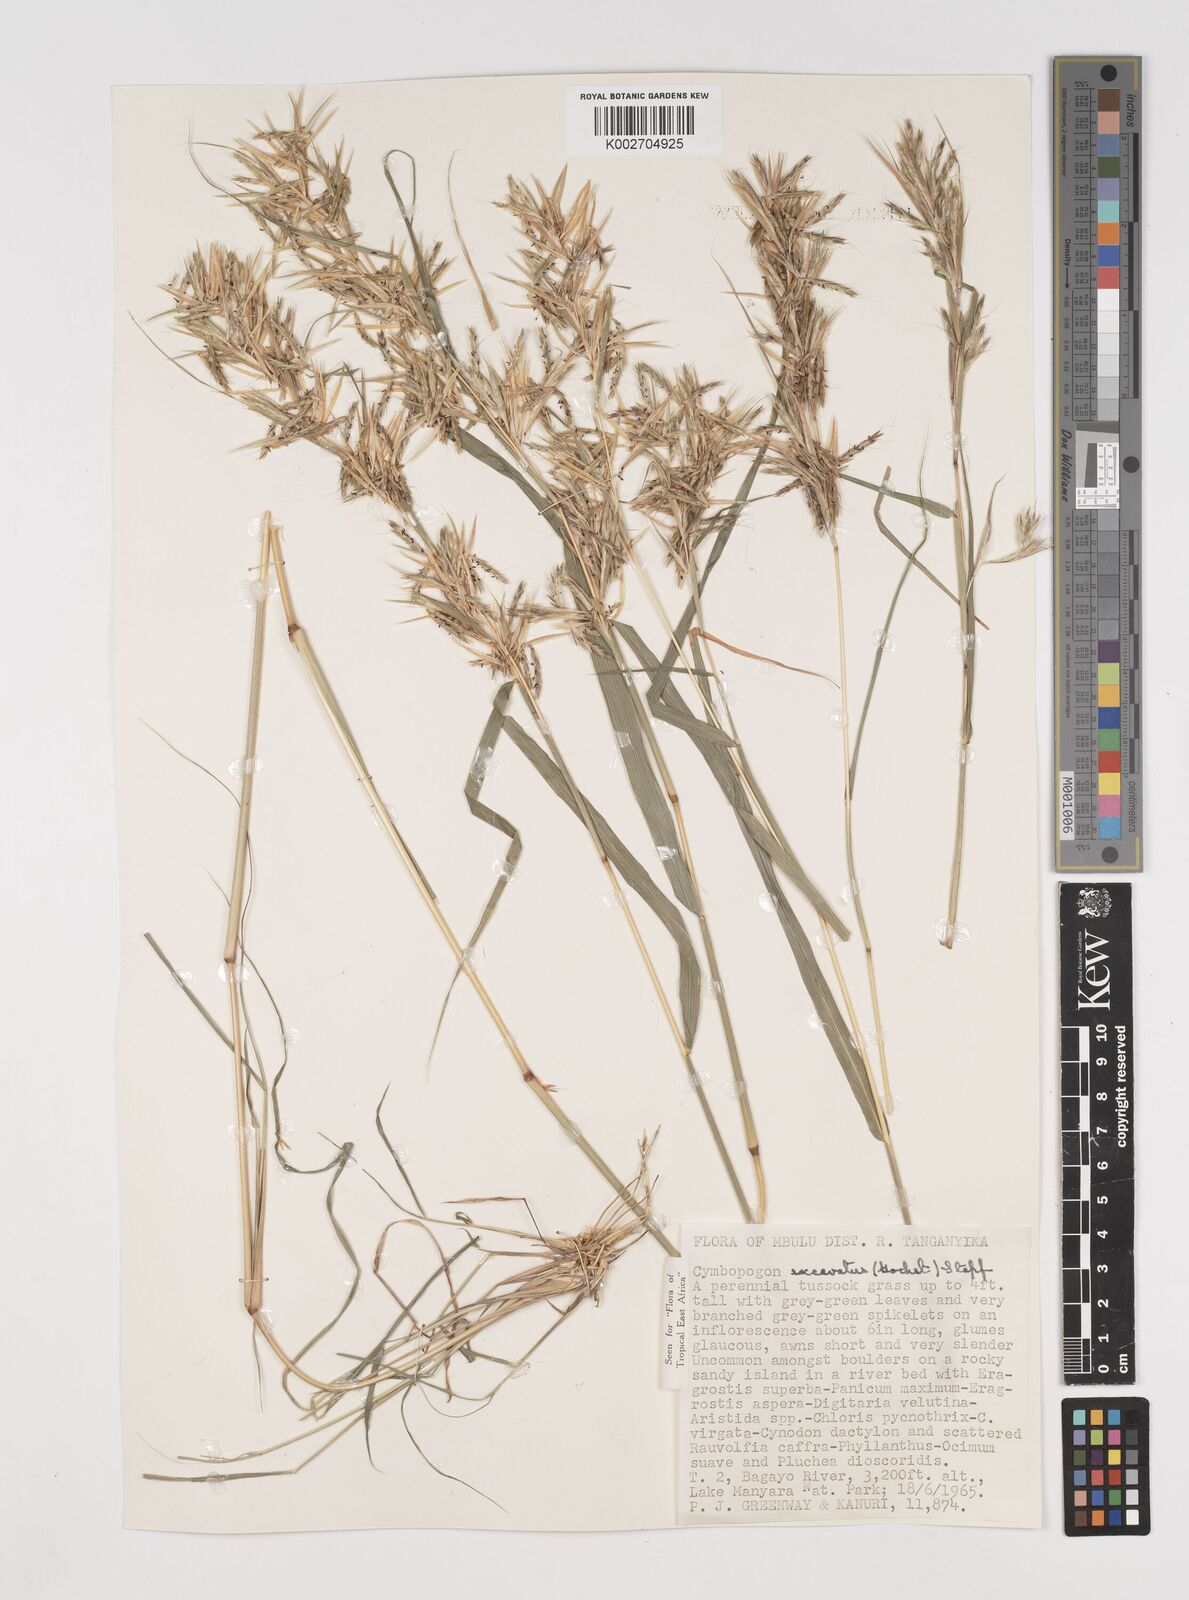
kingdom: Plantae
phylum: Tracheophyta
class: Liliopsida
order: Poales
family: Poaceae
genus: Cymbopogon
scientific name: Cymbopogon caesius
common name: Kachi grass
